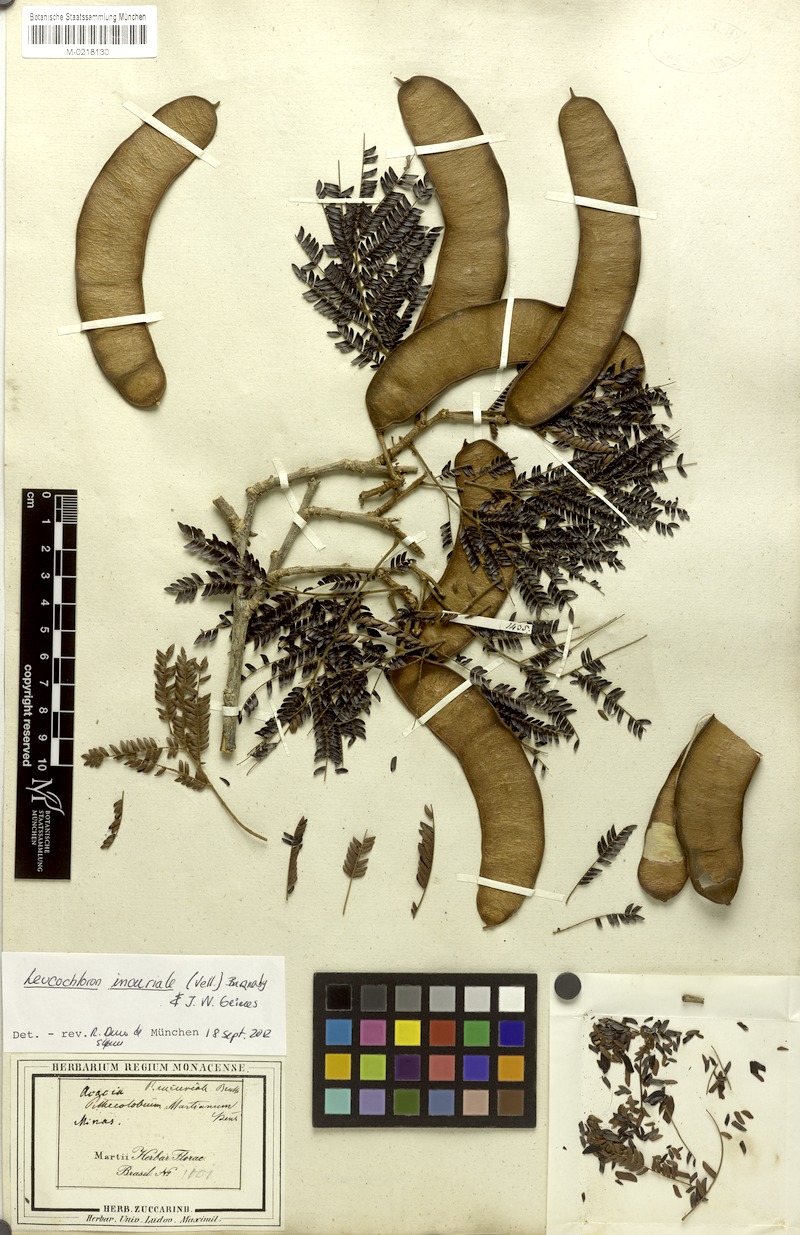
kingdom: Plantae
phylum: Tracheophyta
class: Magnoliopsida
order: Fabales
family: Fabaceae
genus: Leucochloron
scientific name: Leucochloron incuriale
